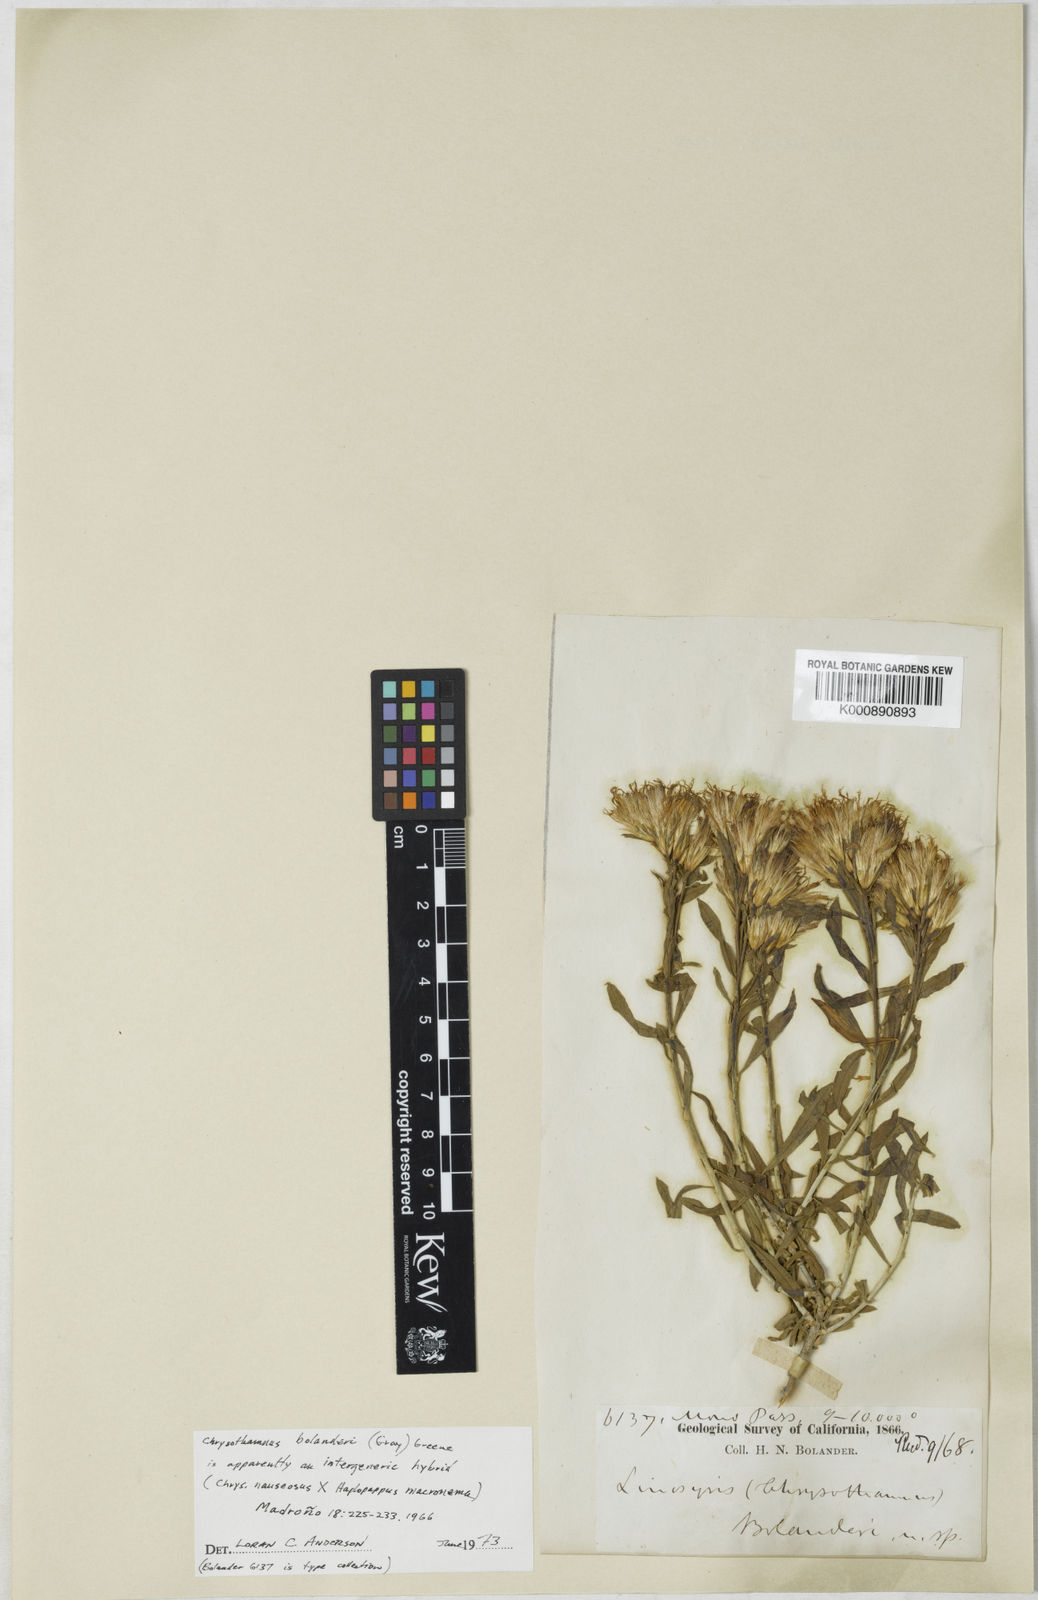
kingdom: Plantae
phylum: Tracheophyta
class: Magnoliopsida
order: Asterales
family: Asteraceae
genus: Ericameria
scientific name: Ericameria bolanderi
